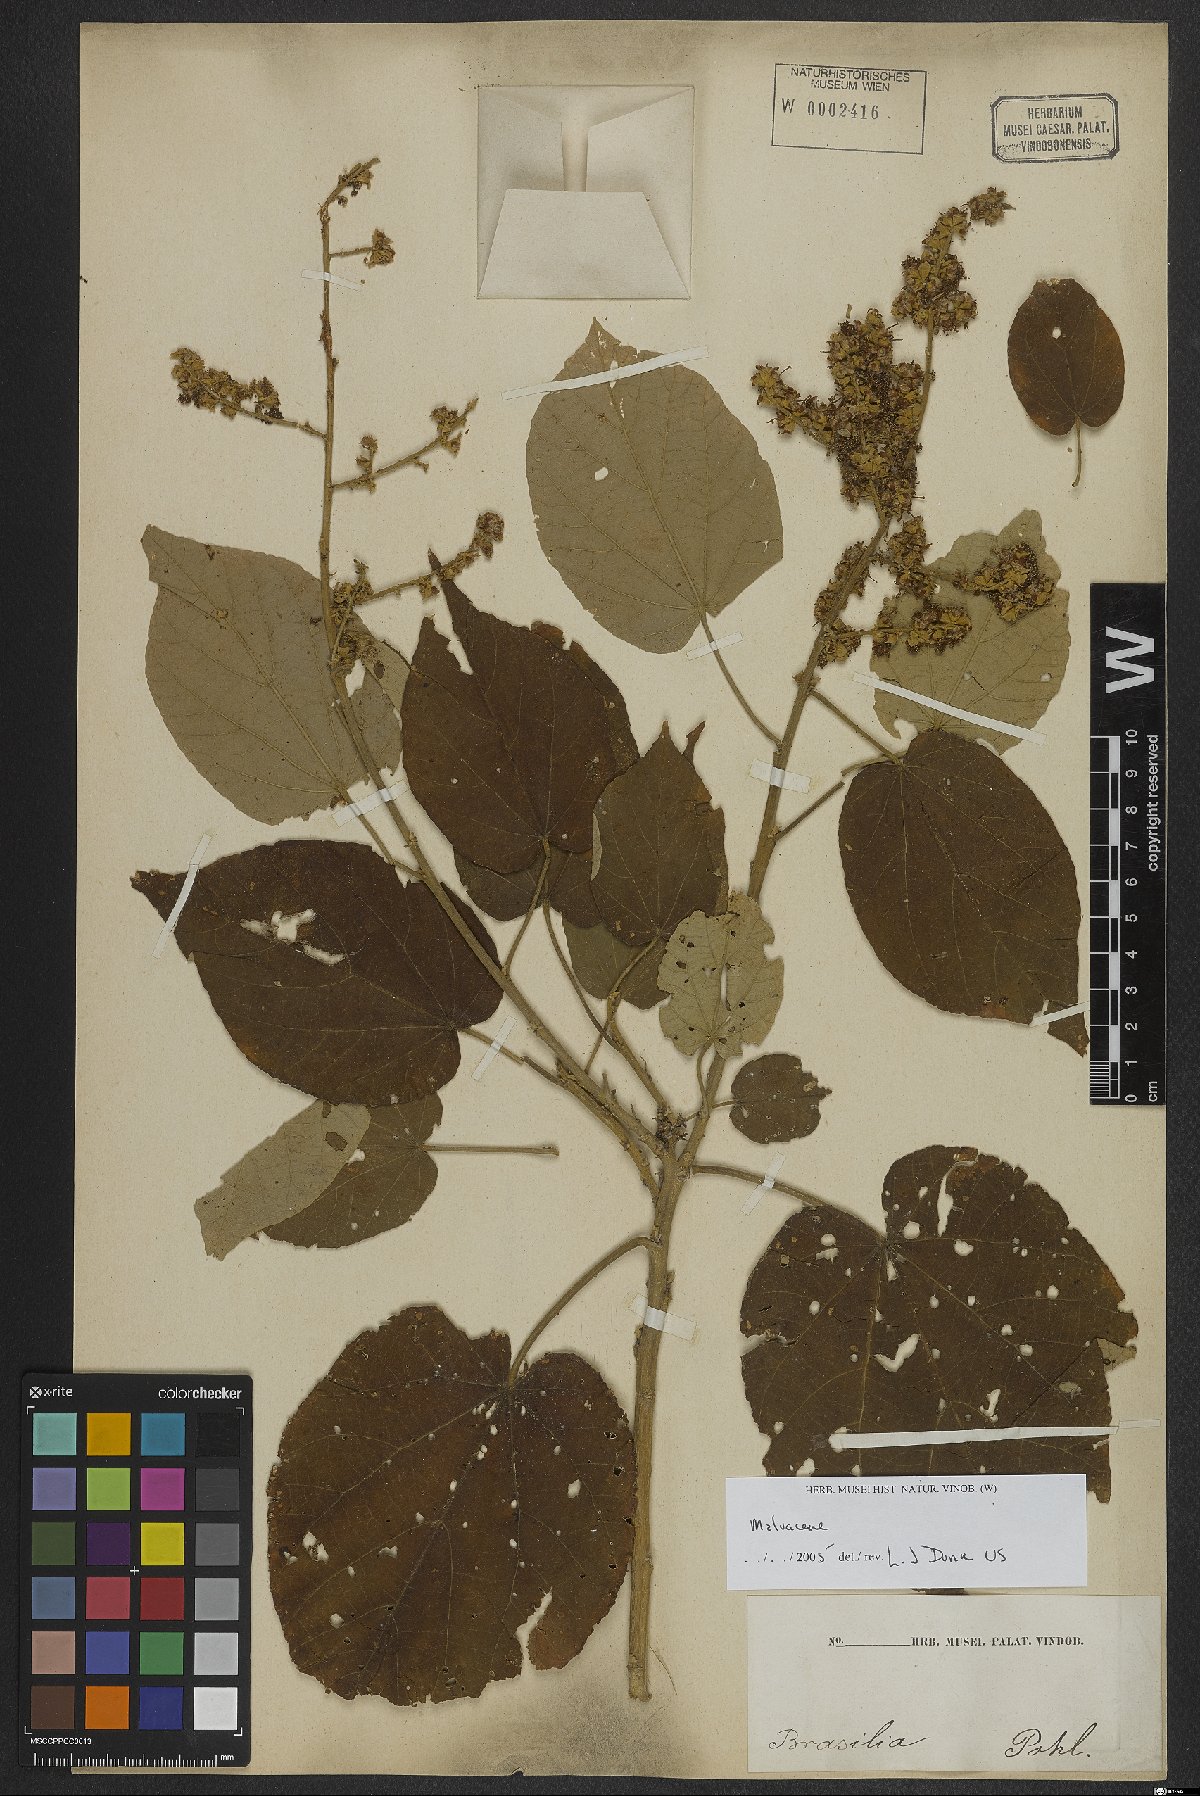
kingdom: Plantae
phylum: Tracheophyta
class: Magnoliopsida
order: Malvales
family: Malvaceae
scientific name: Malvaceae
